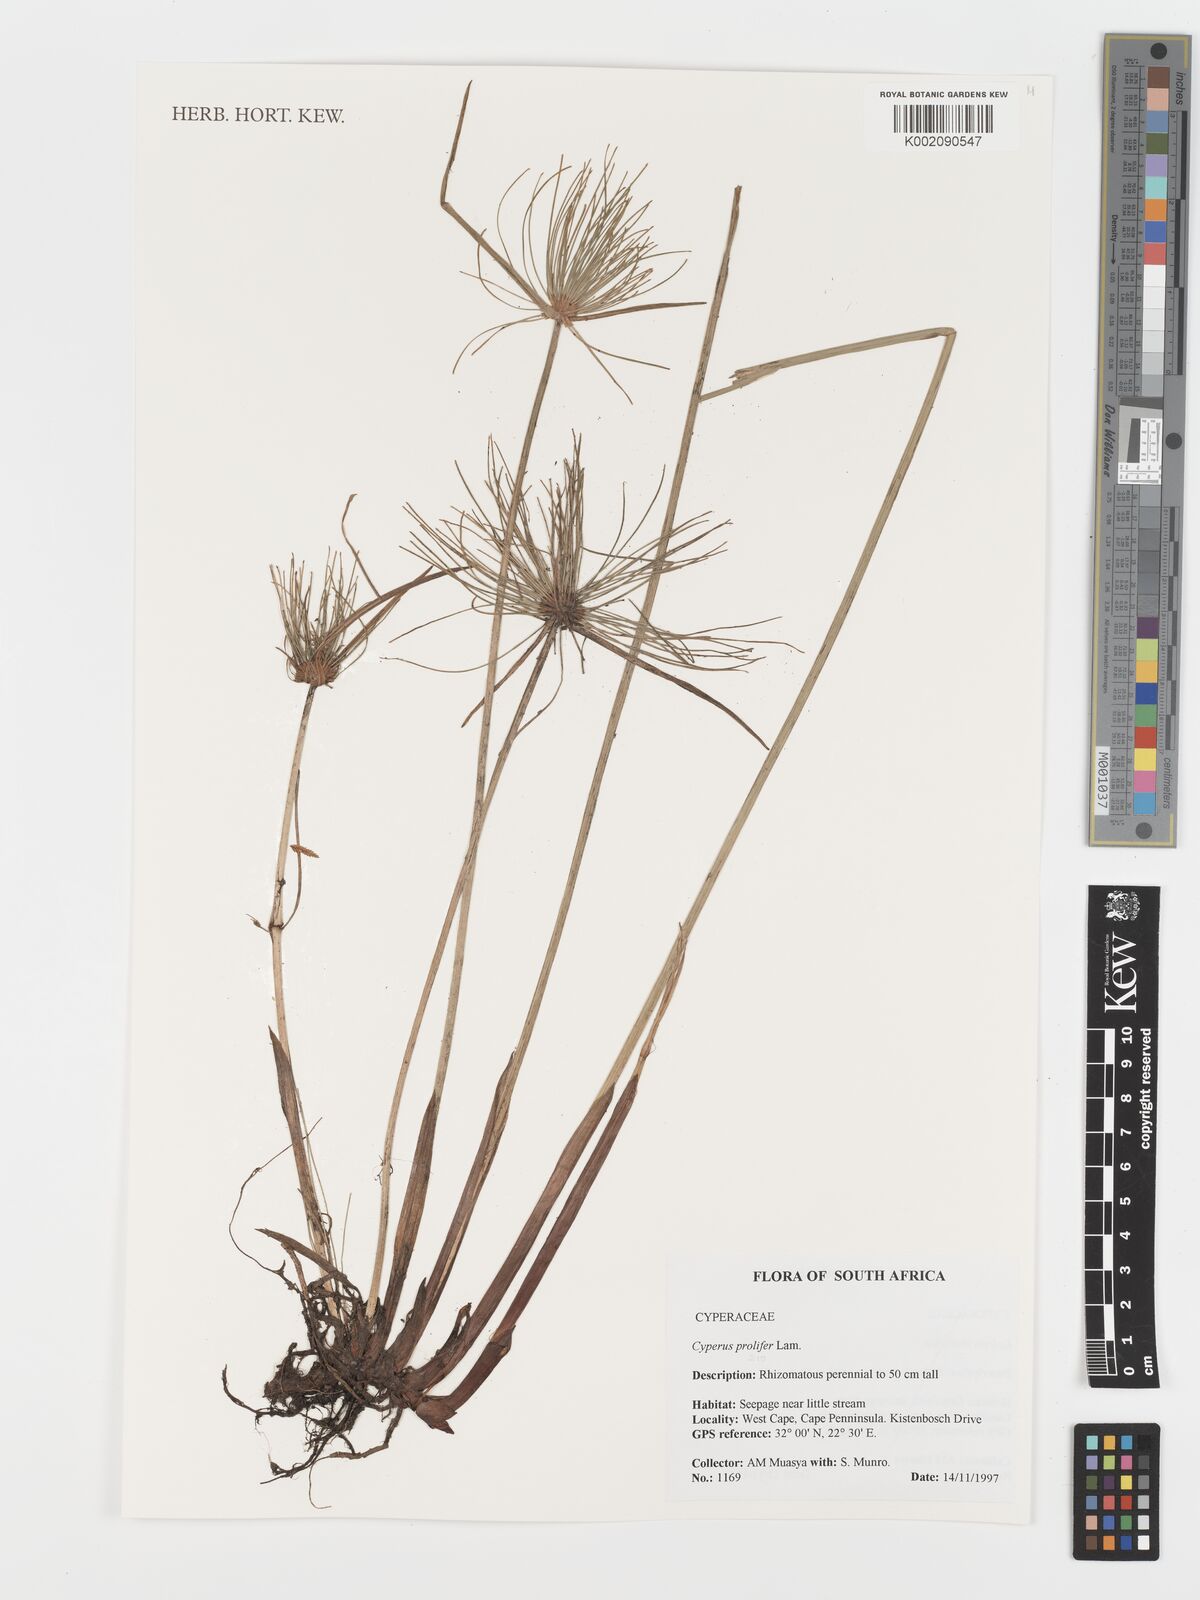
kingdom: Plantae
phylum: Tracheophyta
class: Liliopsida
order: Poales
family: Cyperaceae
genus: Cyperus
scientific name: Cyperus prolifer
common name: Miniature flatsedge
